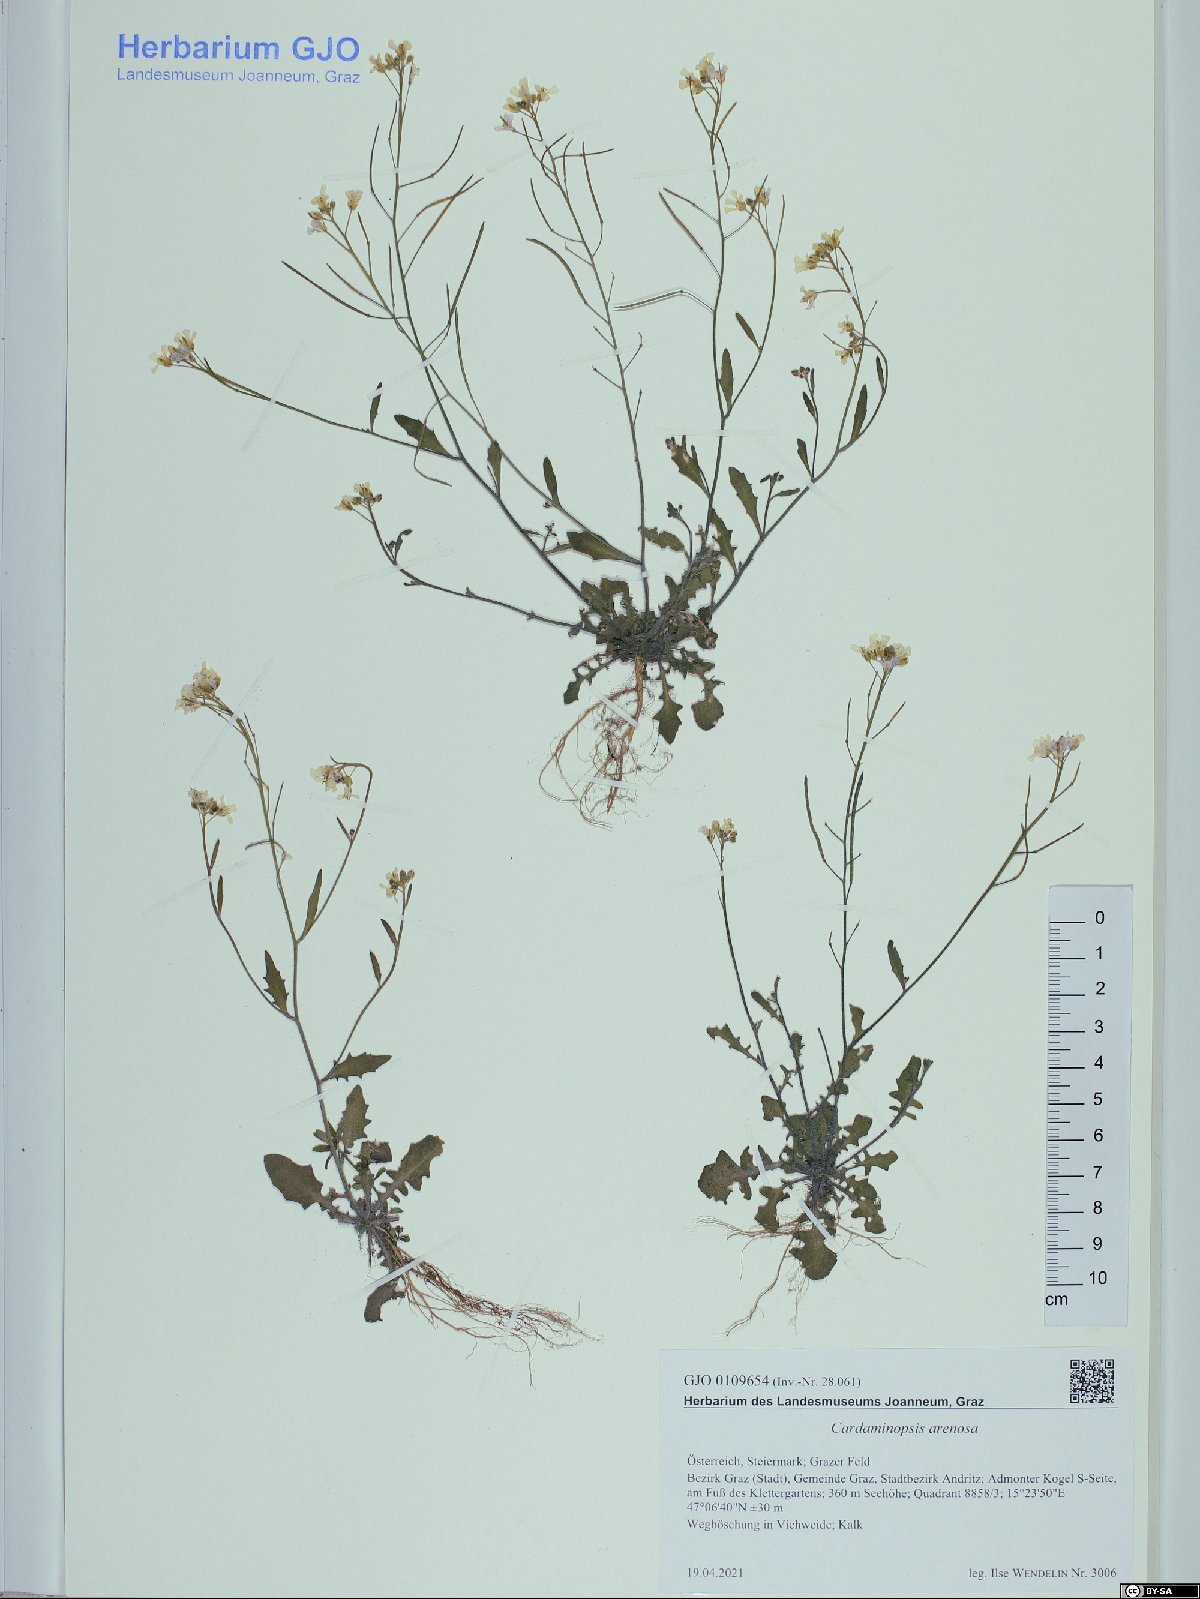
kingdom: Plantae
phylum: Tracheophyta
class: Magnoliopsida
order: Brassicales
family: Brassicaceae
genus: Arabidopsis
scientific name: Arabidopsis arenosa
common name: Sand rock-cress
